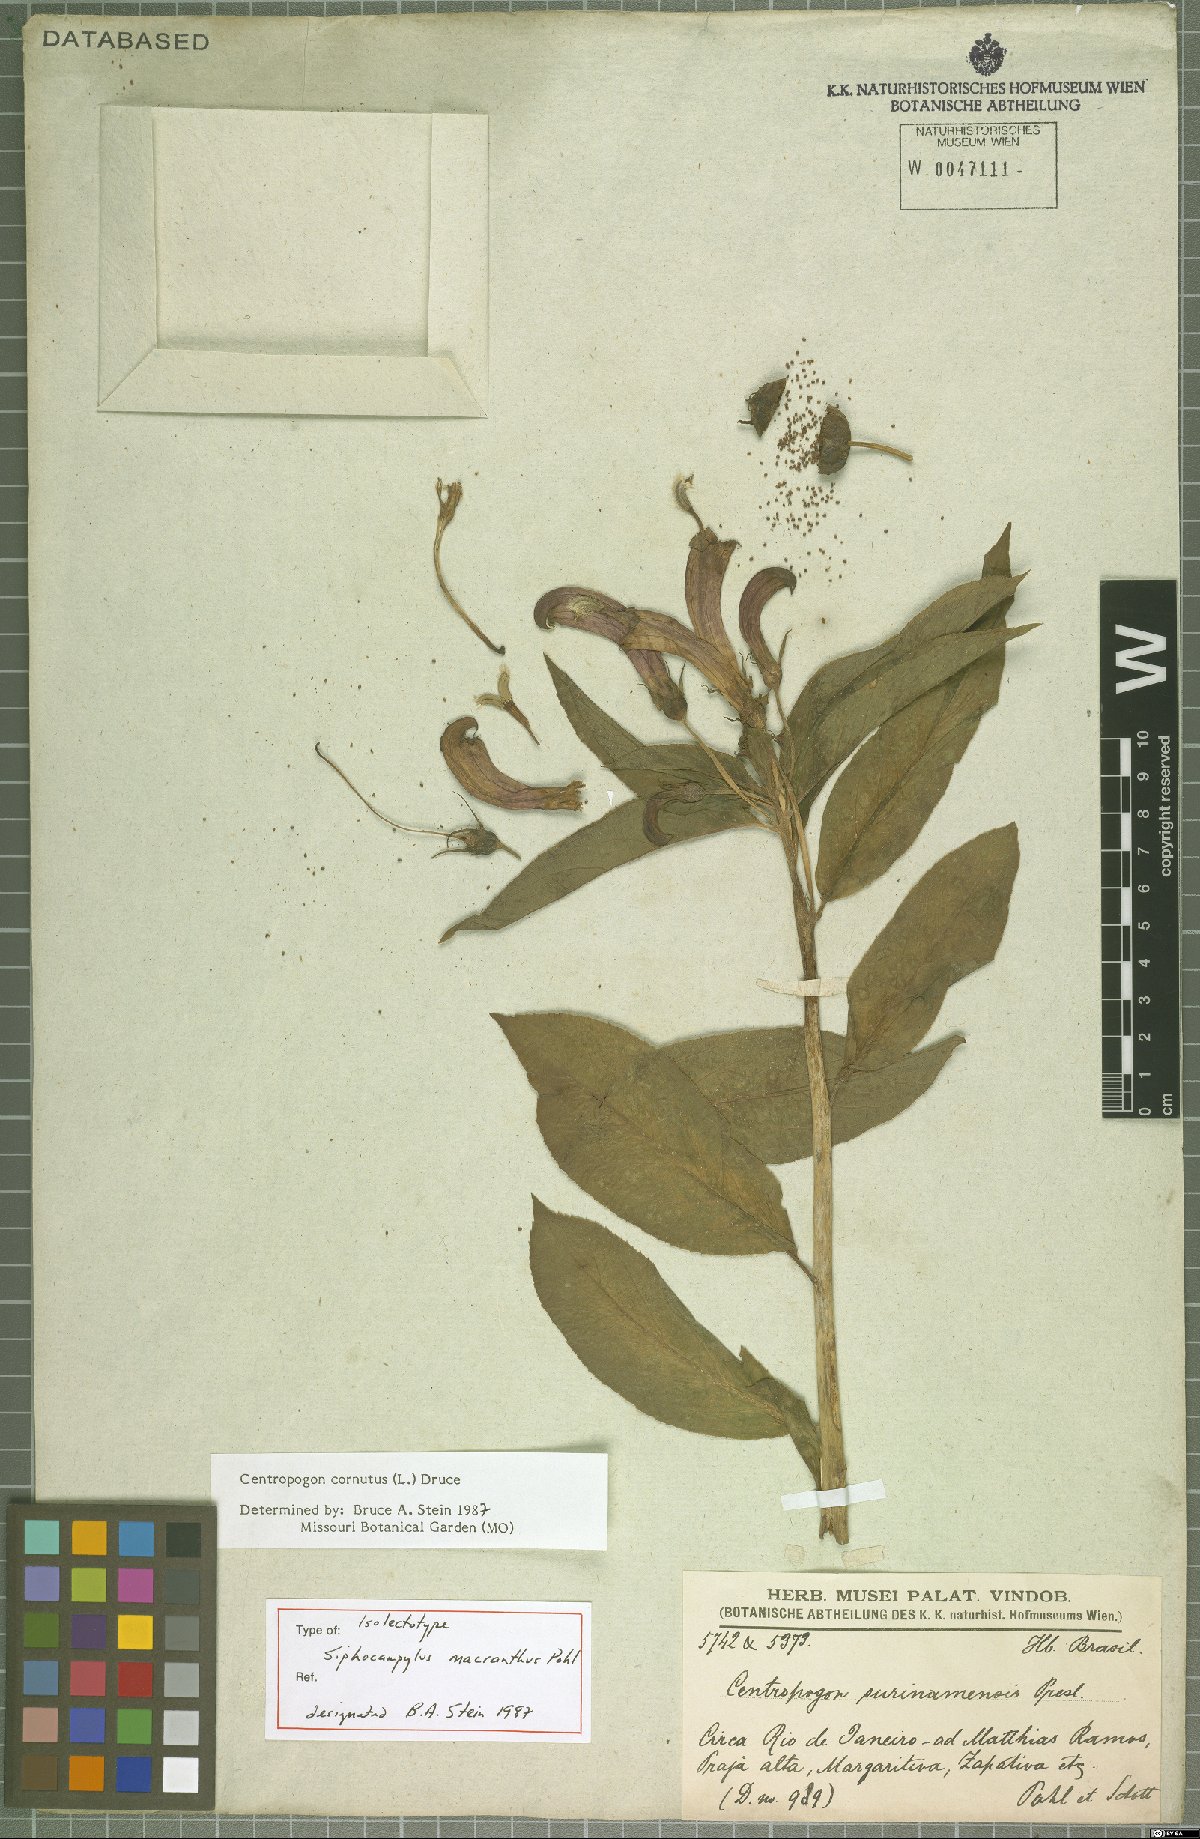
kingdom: Plantae
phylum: Tracheophyta
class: Magnoliopsida
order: Asterales
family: Campanulaceae
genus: Centropogon
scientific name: Centropogon cornutus
